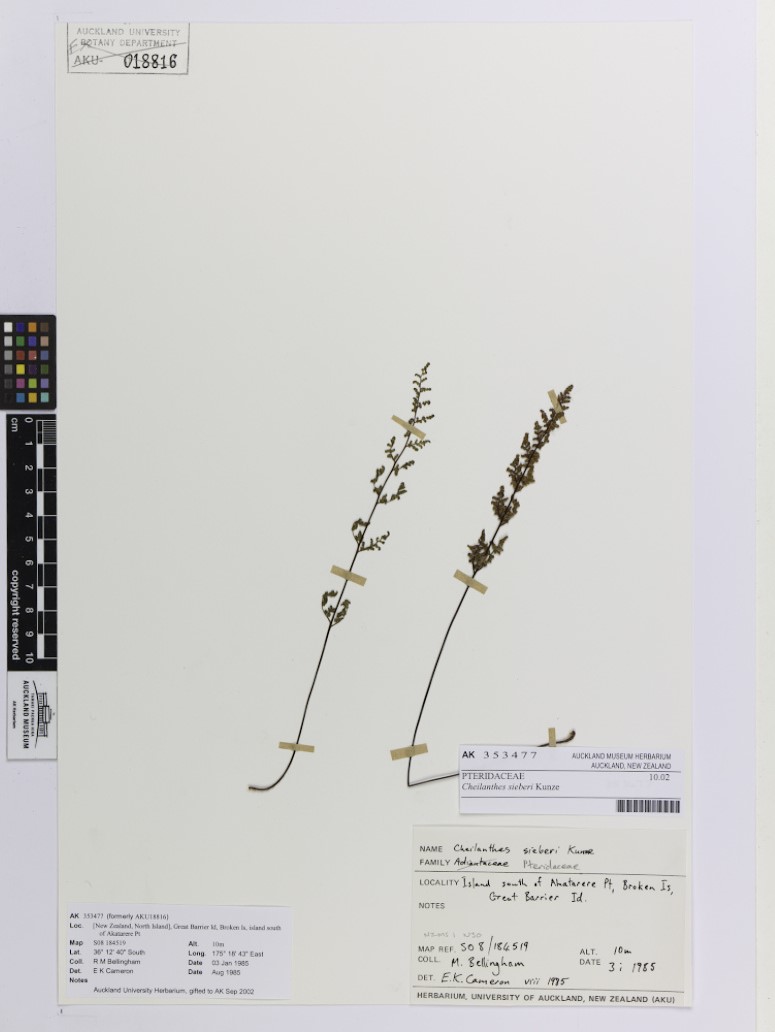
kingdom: Plantae
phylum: Tracheophyta
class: Polypodiopsida
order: Polypodiales
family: Pteridaceae
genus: Cheilanthes
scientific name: Cheilanthes sieberi
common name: Mulga fern
